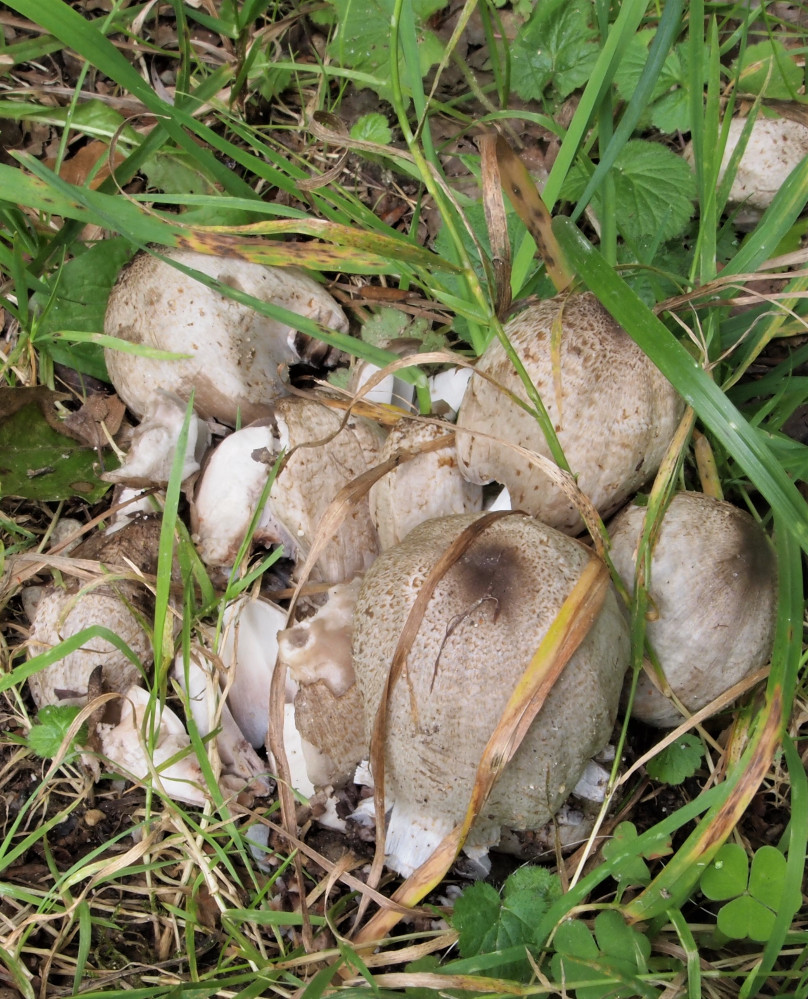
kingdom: Fungi
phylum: Basidiomycota
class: Agaricomycetes
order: Agaricales
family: Psathyrellaceae
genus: Coprinopsis
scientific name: Coprinopsis atramentaria
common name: almindelig blækhat
